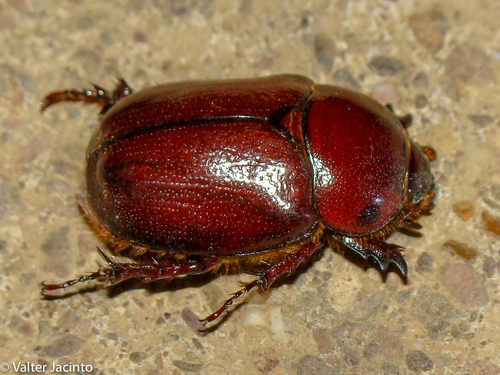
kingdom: Animalia
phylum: Arthropoda
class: Insecta
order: Coleoptera
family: Scarabaeidae
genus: Phyllognathus
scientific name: Phyllognathus excavatus
